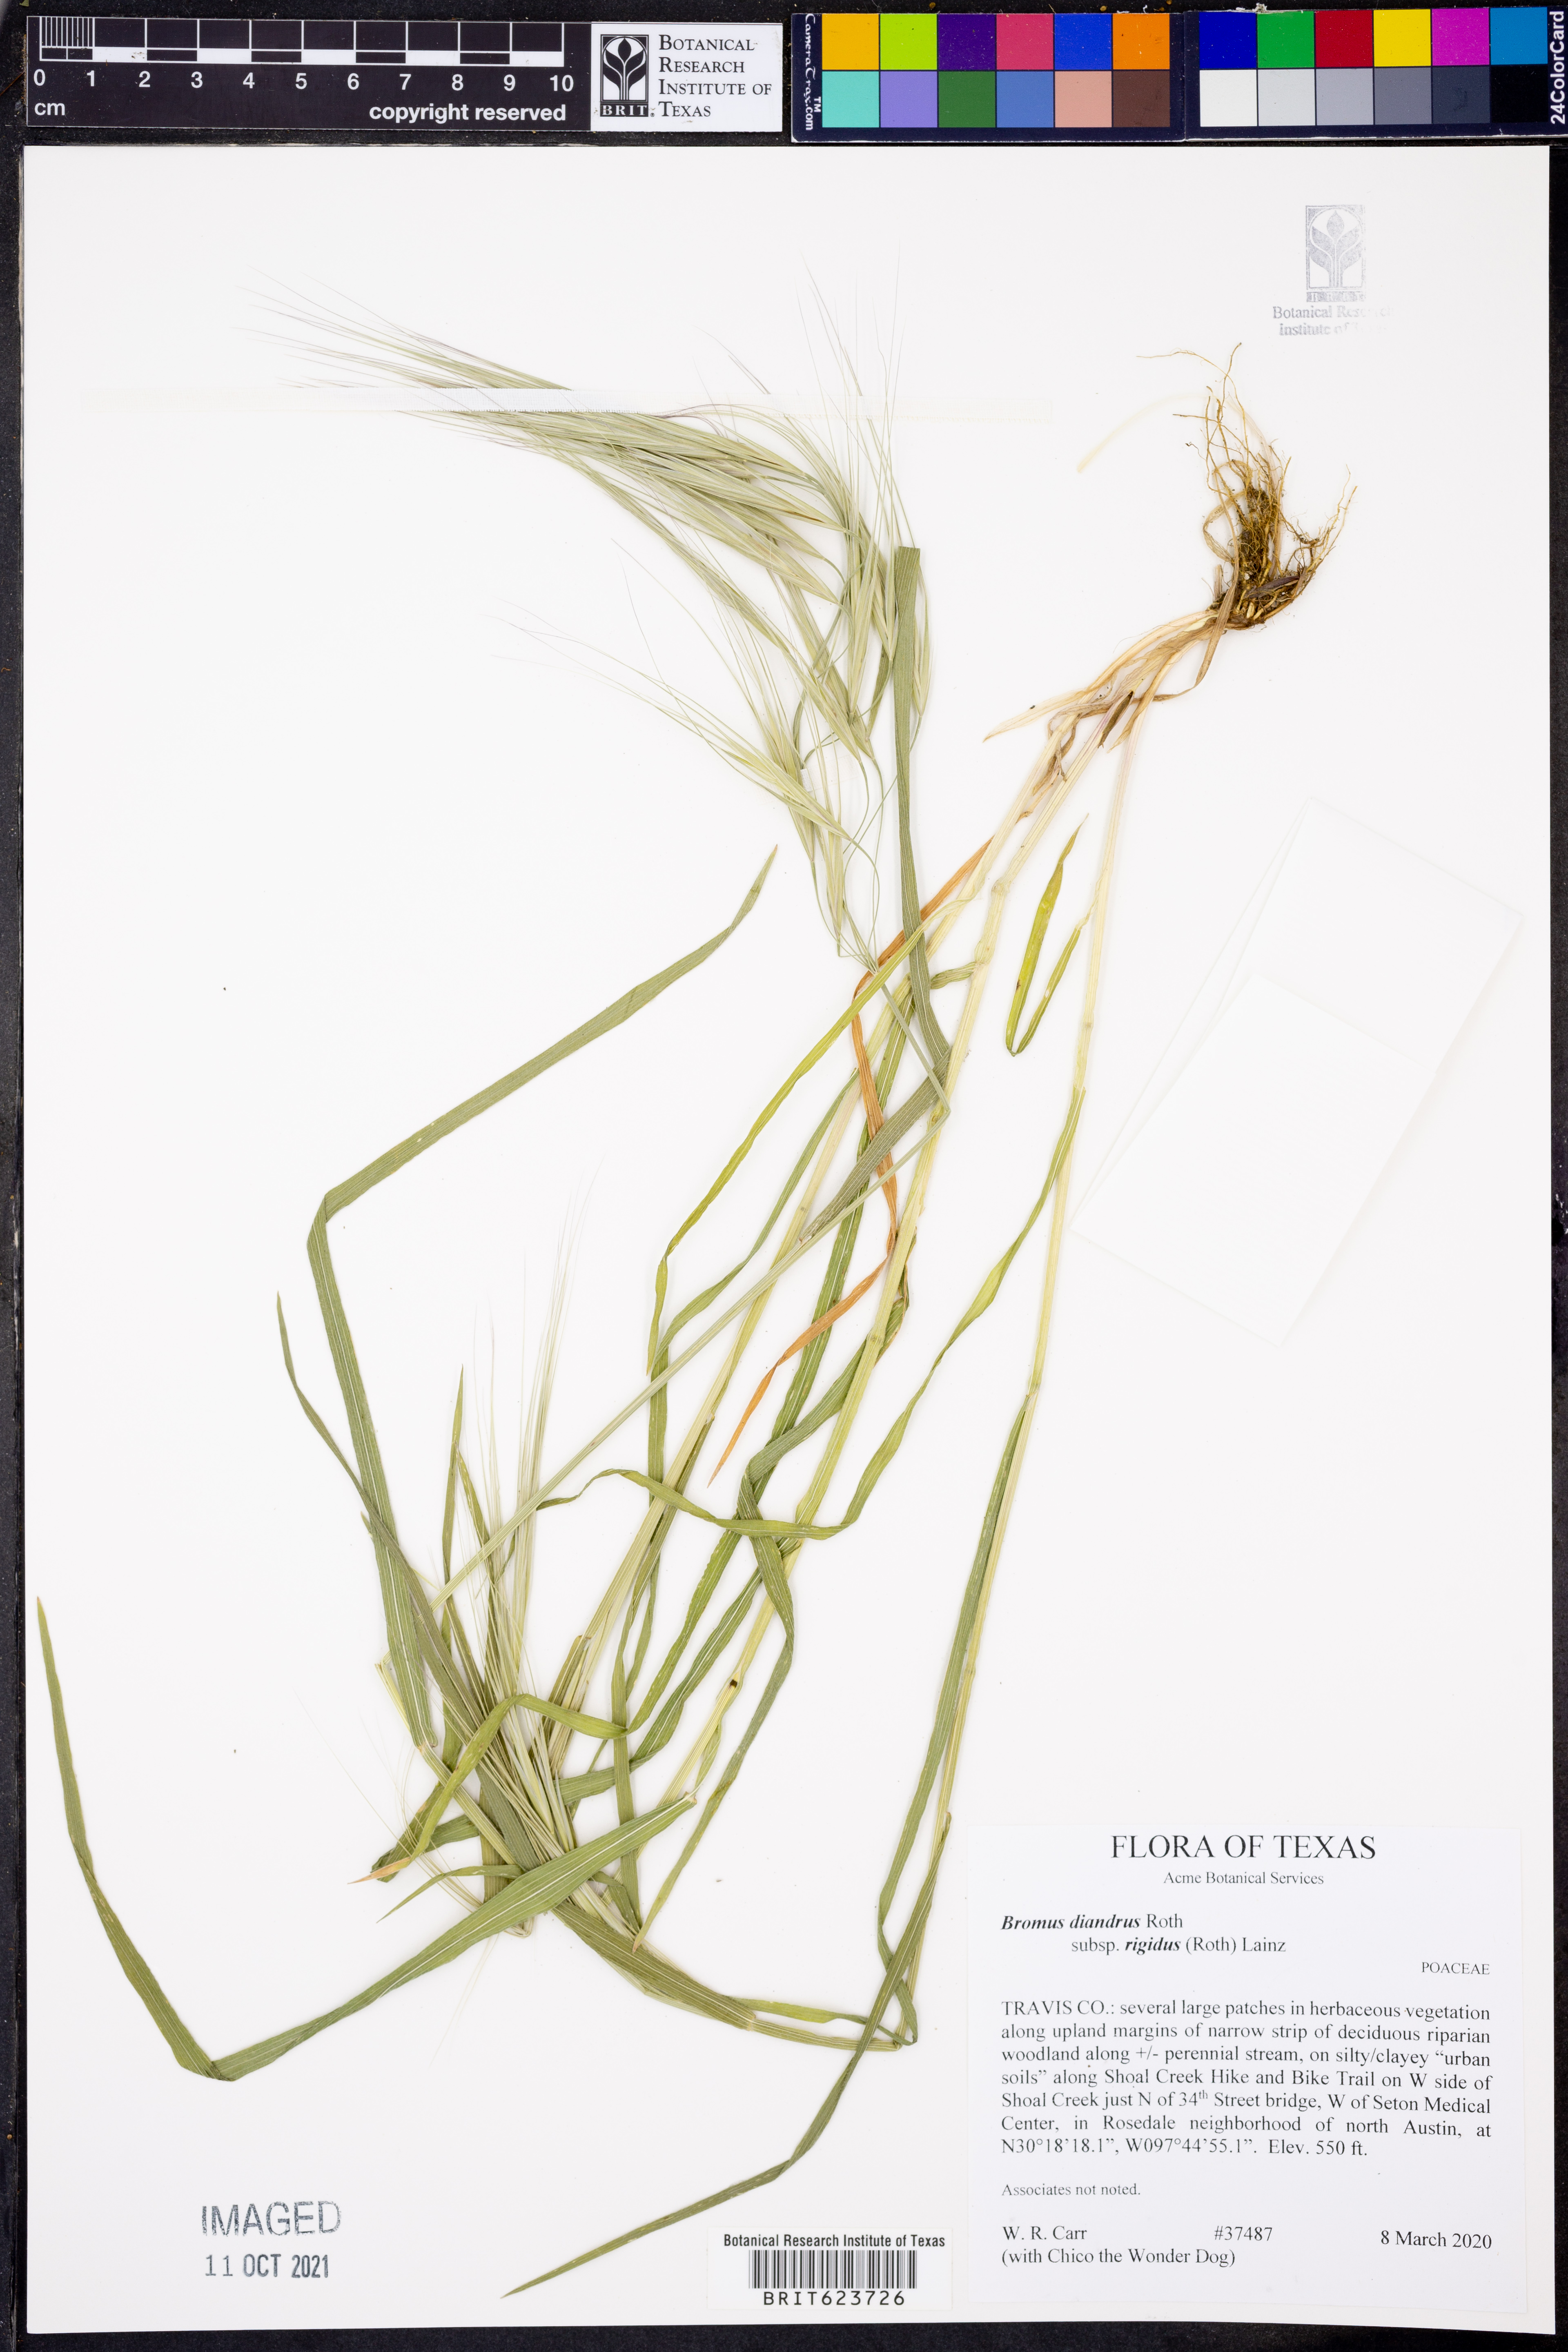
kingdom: Plantae
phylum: Tracheophyta
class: Liliopsida
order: Poales
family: Poaceae
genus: Bromus
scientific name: Bromus rigidus
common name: Ripgut brome
